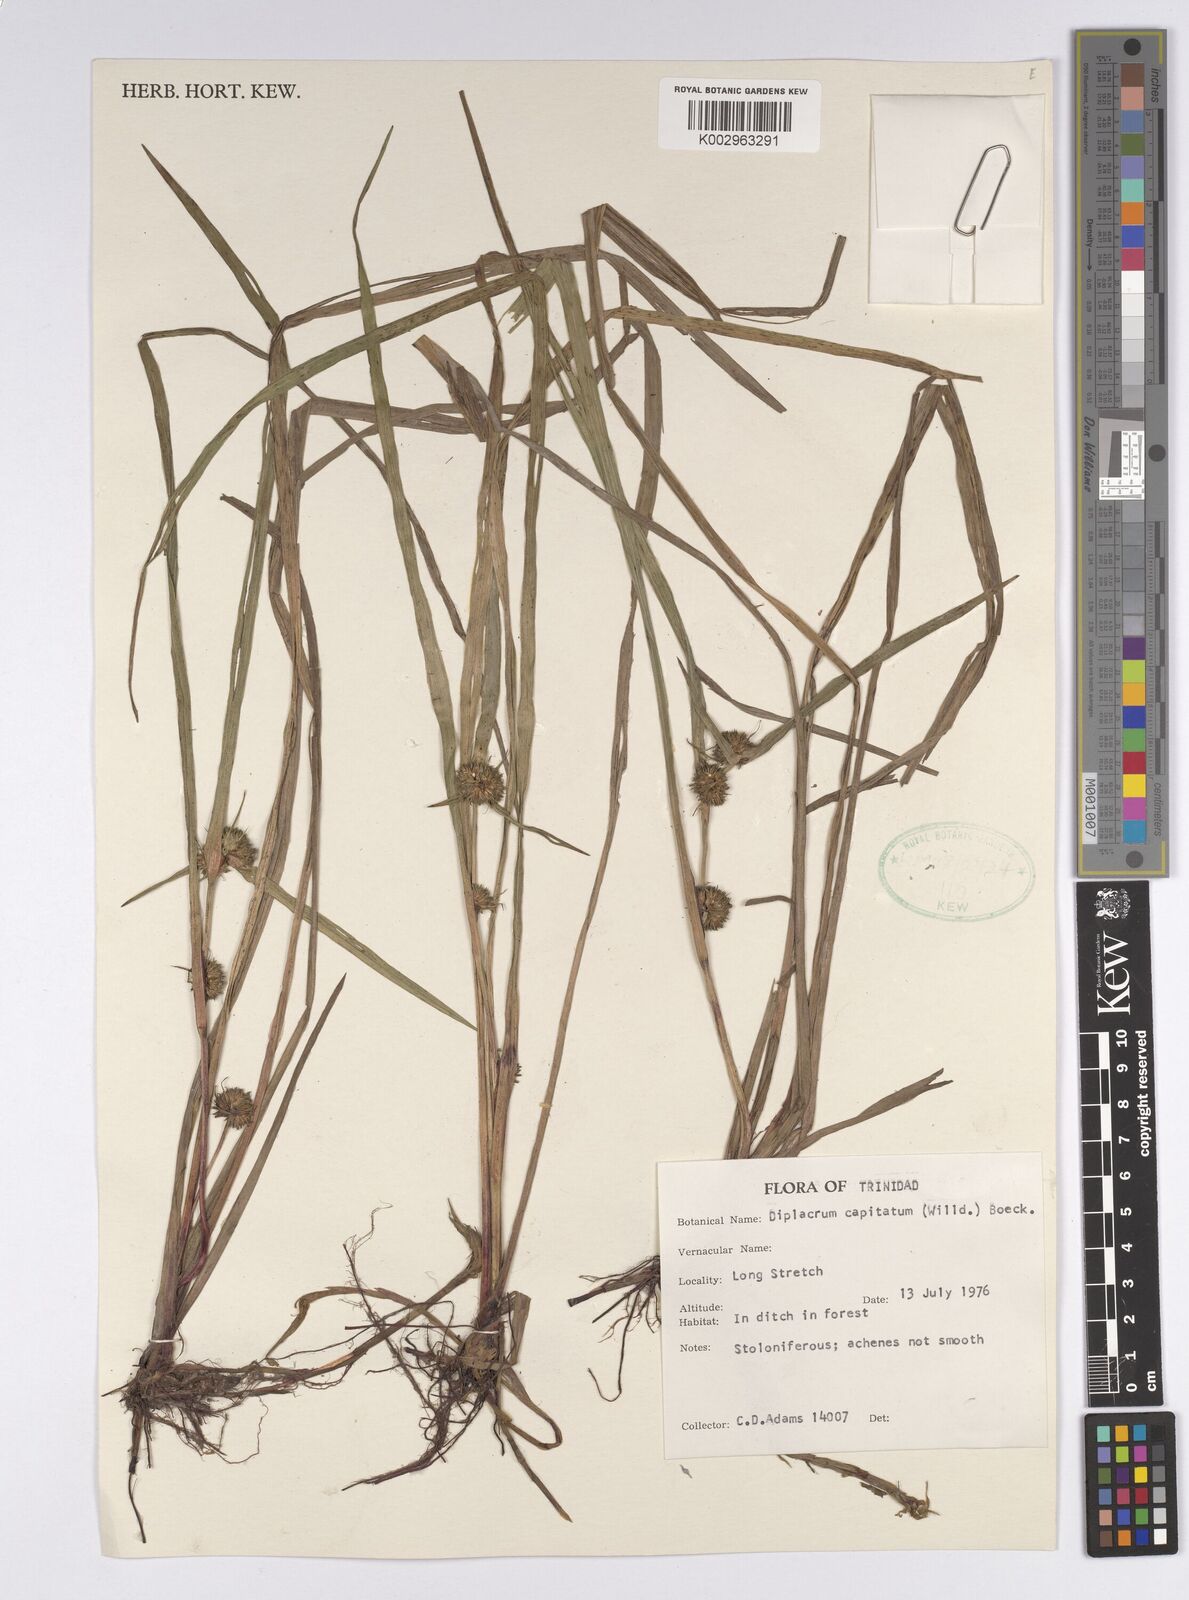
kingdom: Plantae
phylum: Tracheophyta
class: Liliopsida
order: Poales
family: Cyperaceae
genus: Diplacrum
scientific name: Diplacrum capitatum
